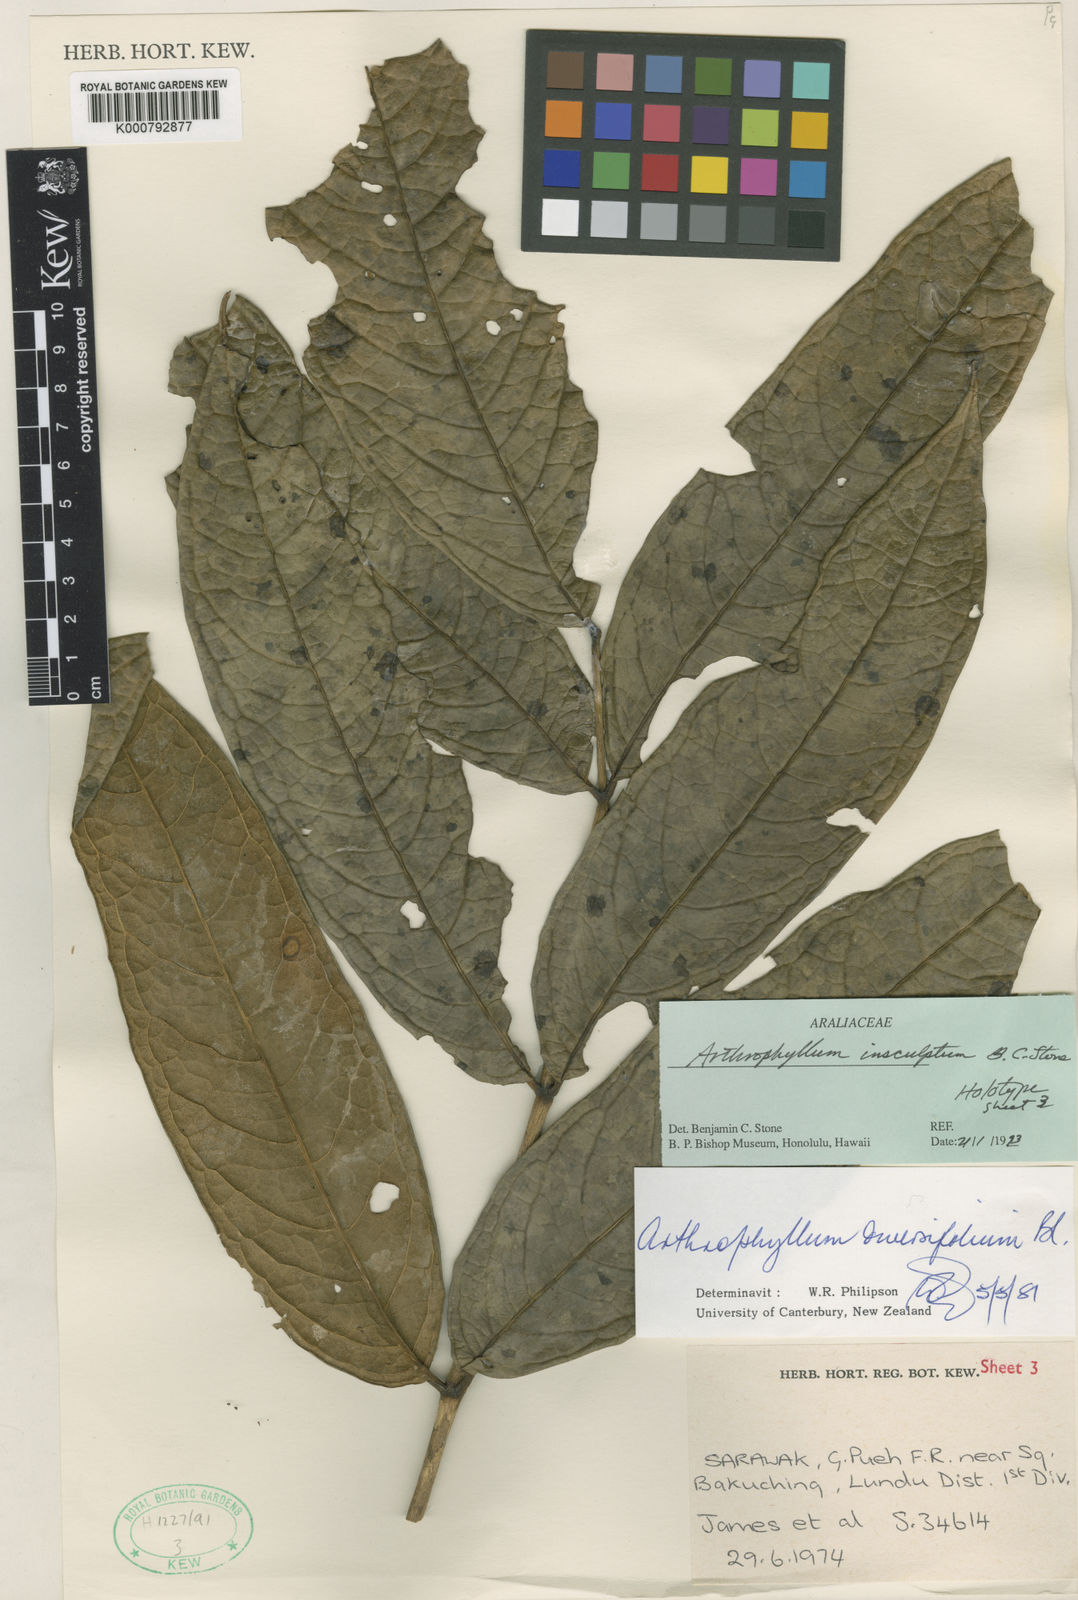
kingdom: Plantae
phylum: Tracheophyta
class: Magnoliopsida
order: Lamiales
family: Bignoniaceae
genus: Arthrophyllum
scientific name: Arthrophyllum
